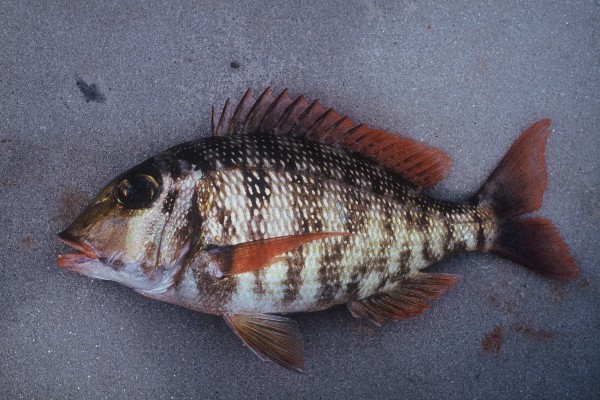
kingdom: Animalia
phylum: Chordata
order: Perciformes
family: Lethrinidae
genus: Lethrinus
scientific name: Lethrinus borbonicus
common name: Snubnose emperor
